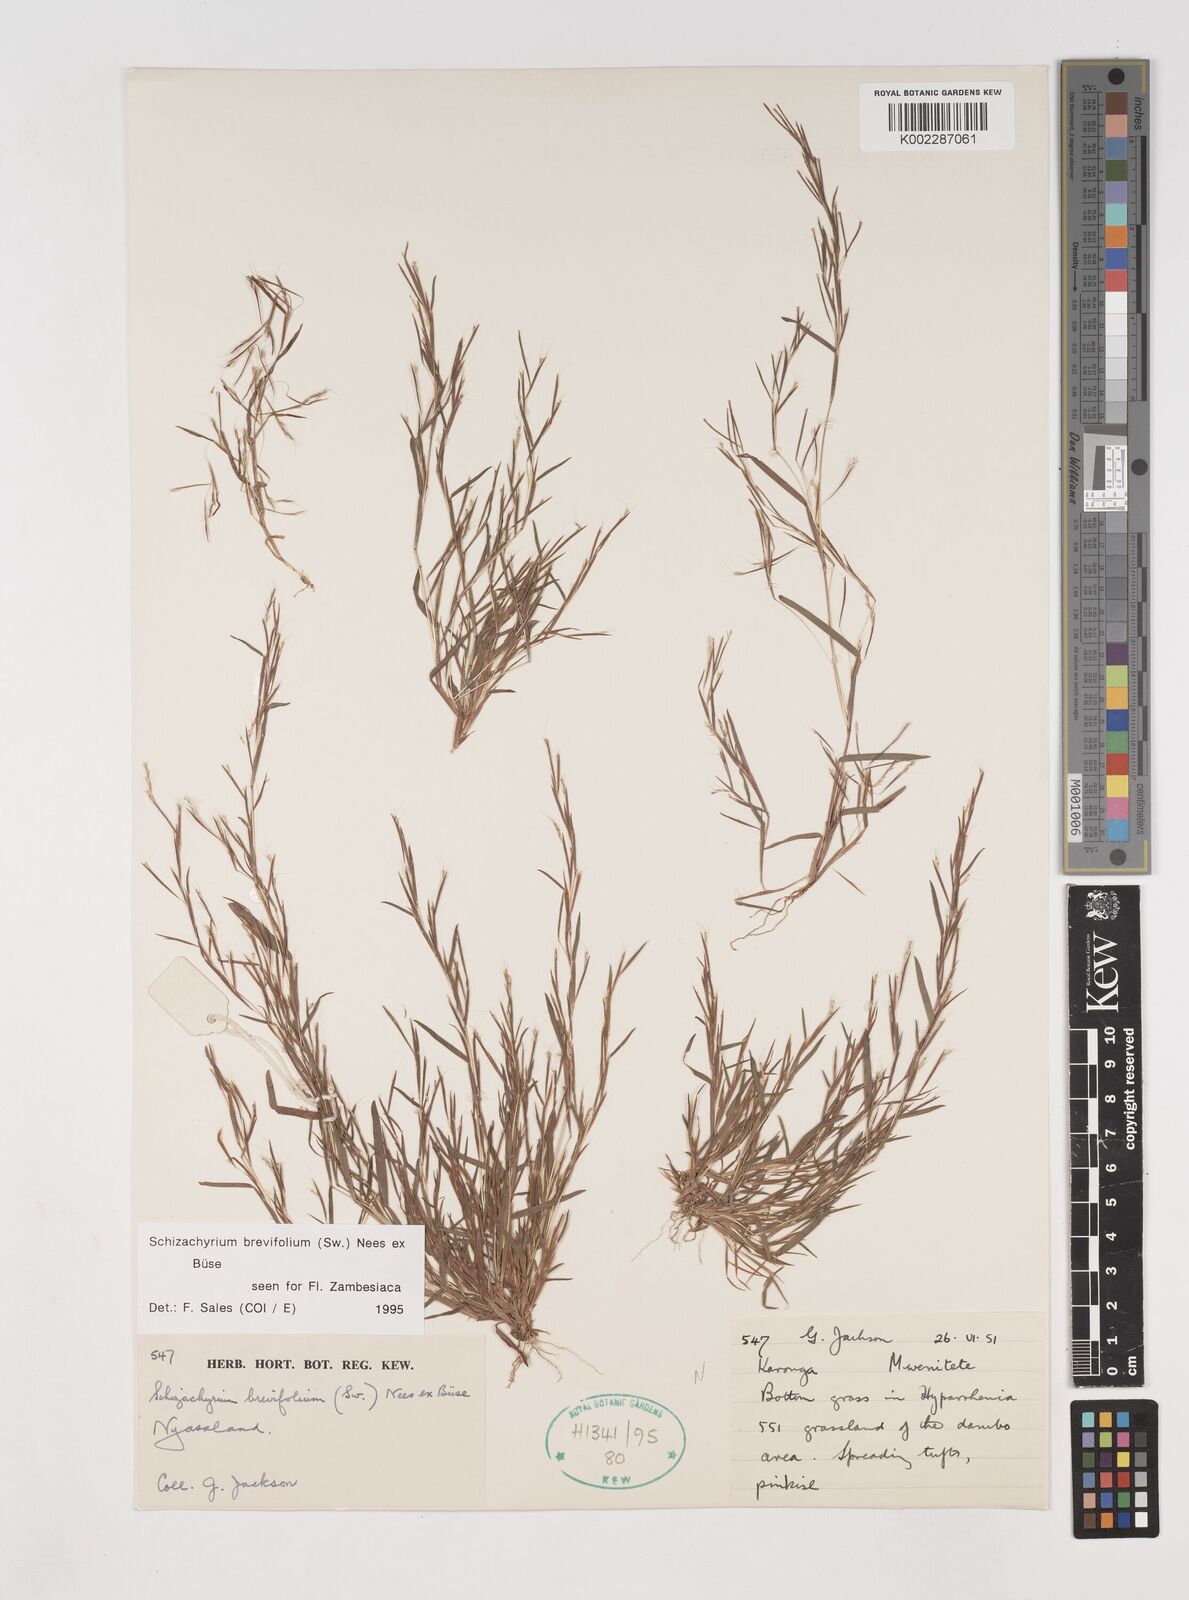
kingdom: Plantae
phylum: Tracheophyta
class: Liliopsida
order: Poales
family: Poaceae
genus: Schizachyrium
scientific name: Schizachyrium brevifolium
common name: Serillo dulce
